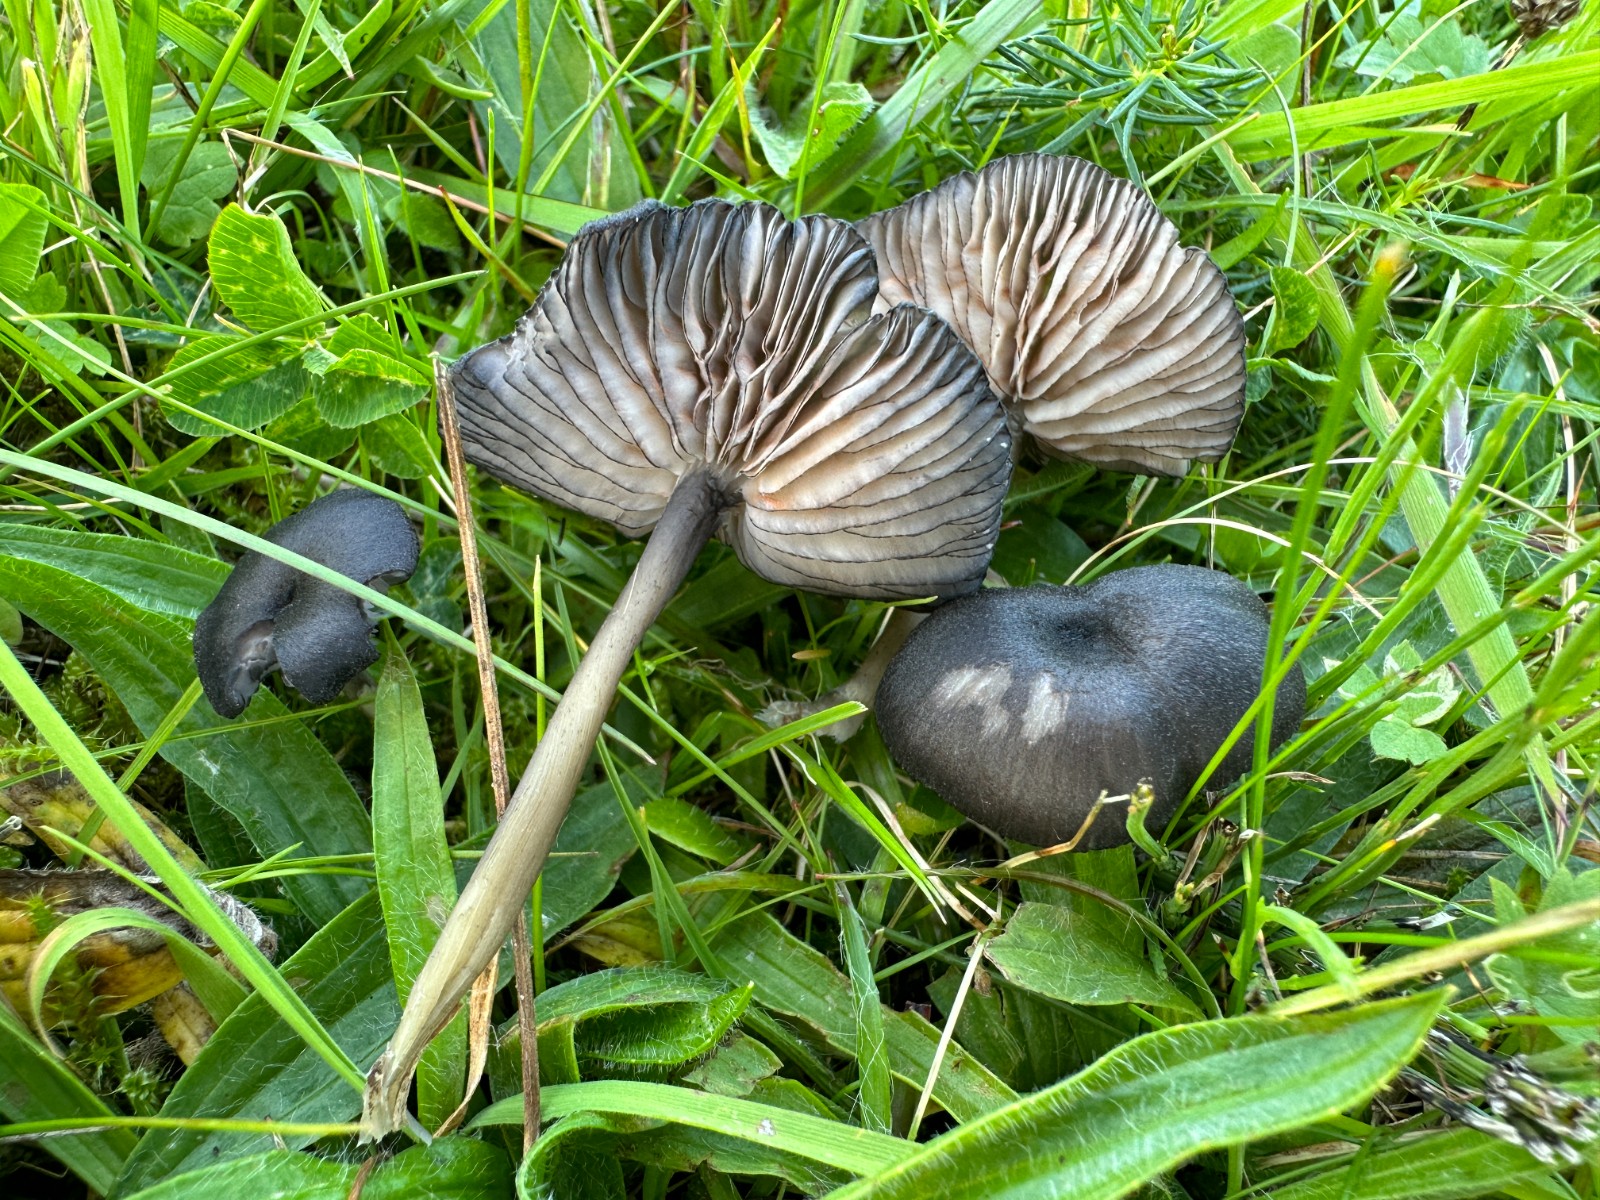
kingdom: Fungi
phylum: Basidiomycota
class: Agaricomycetes
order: Agaricales
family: Entolomataceae
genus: Entoloma
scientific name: Entoloma
